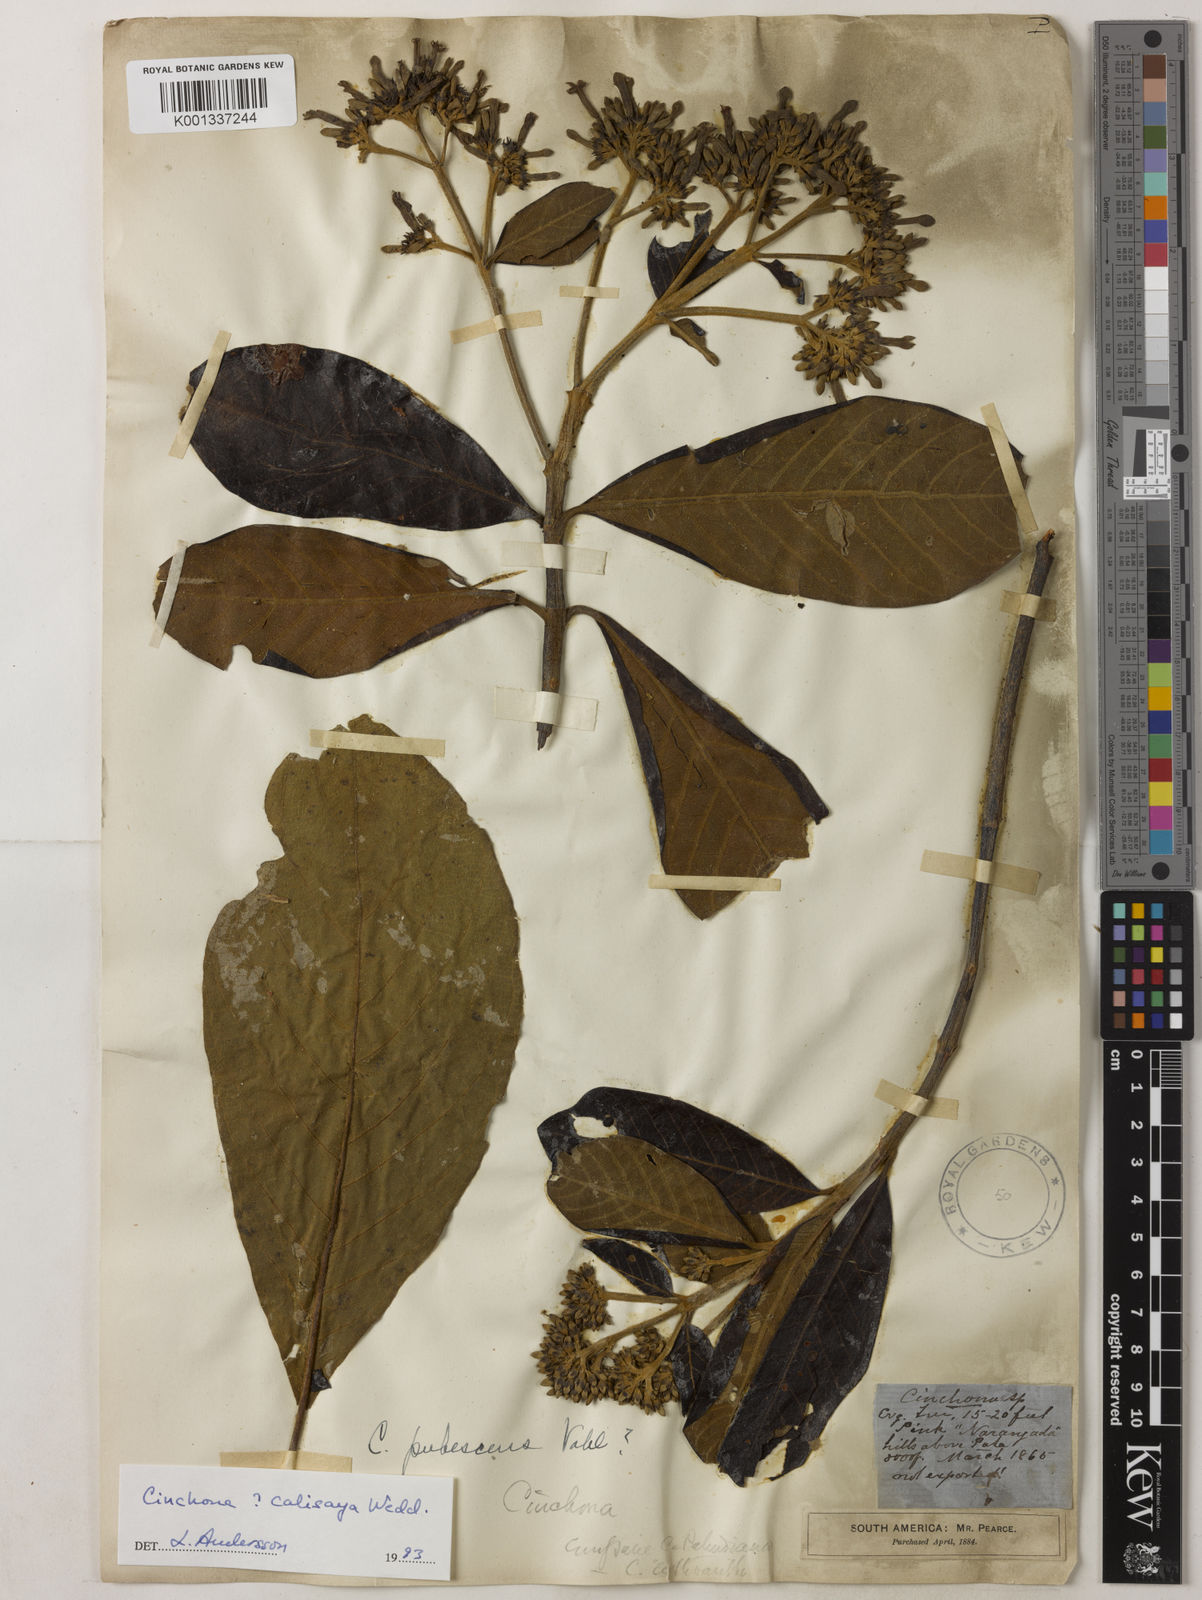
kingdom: Plantae
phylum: Tracheophyta
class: Magnoliopsida
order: Gentianales
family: Rubiaceae
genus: Cinchona
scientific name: Cinchona calisaya
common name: Ledgerbark
